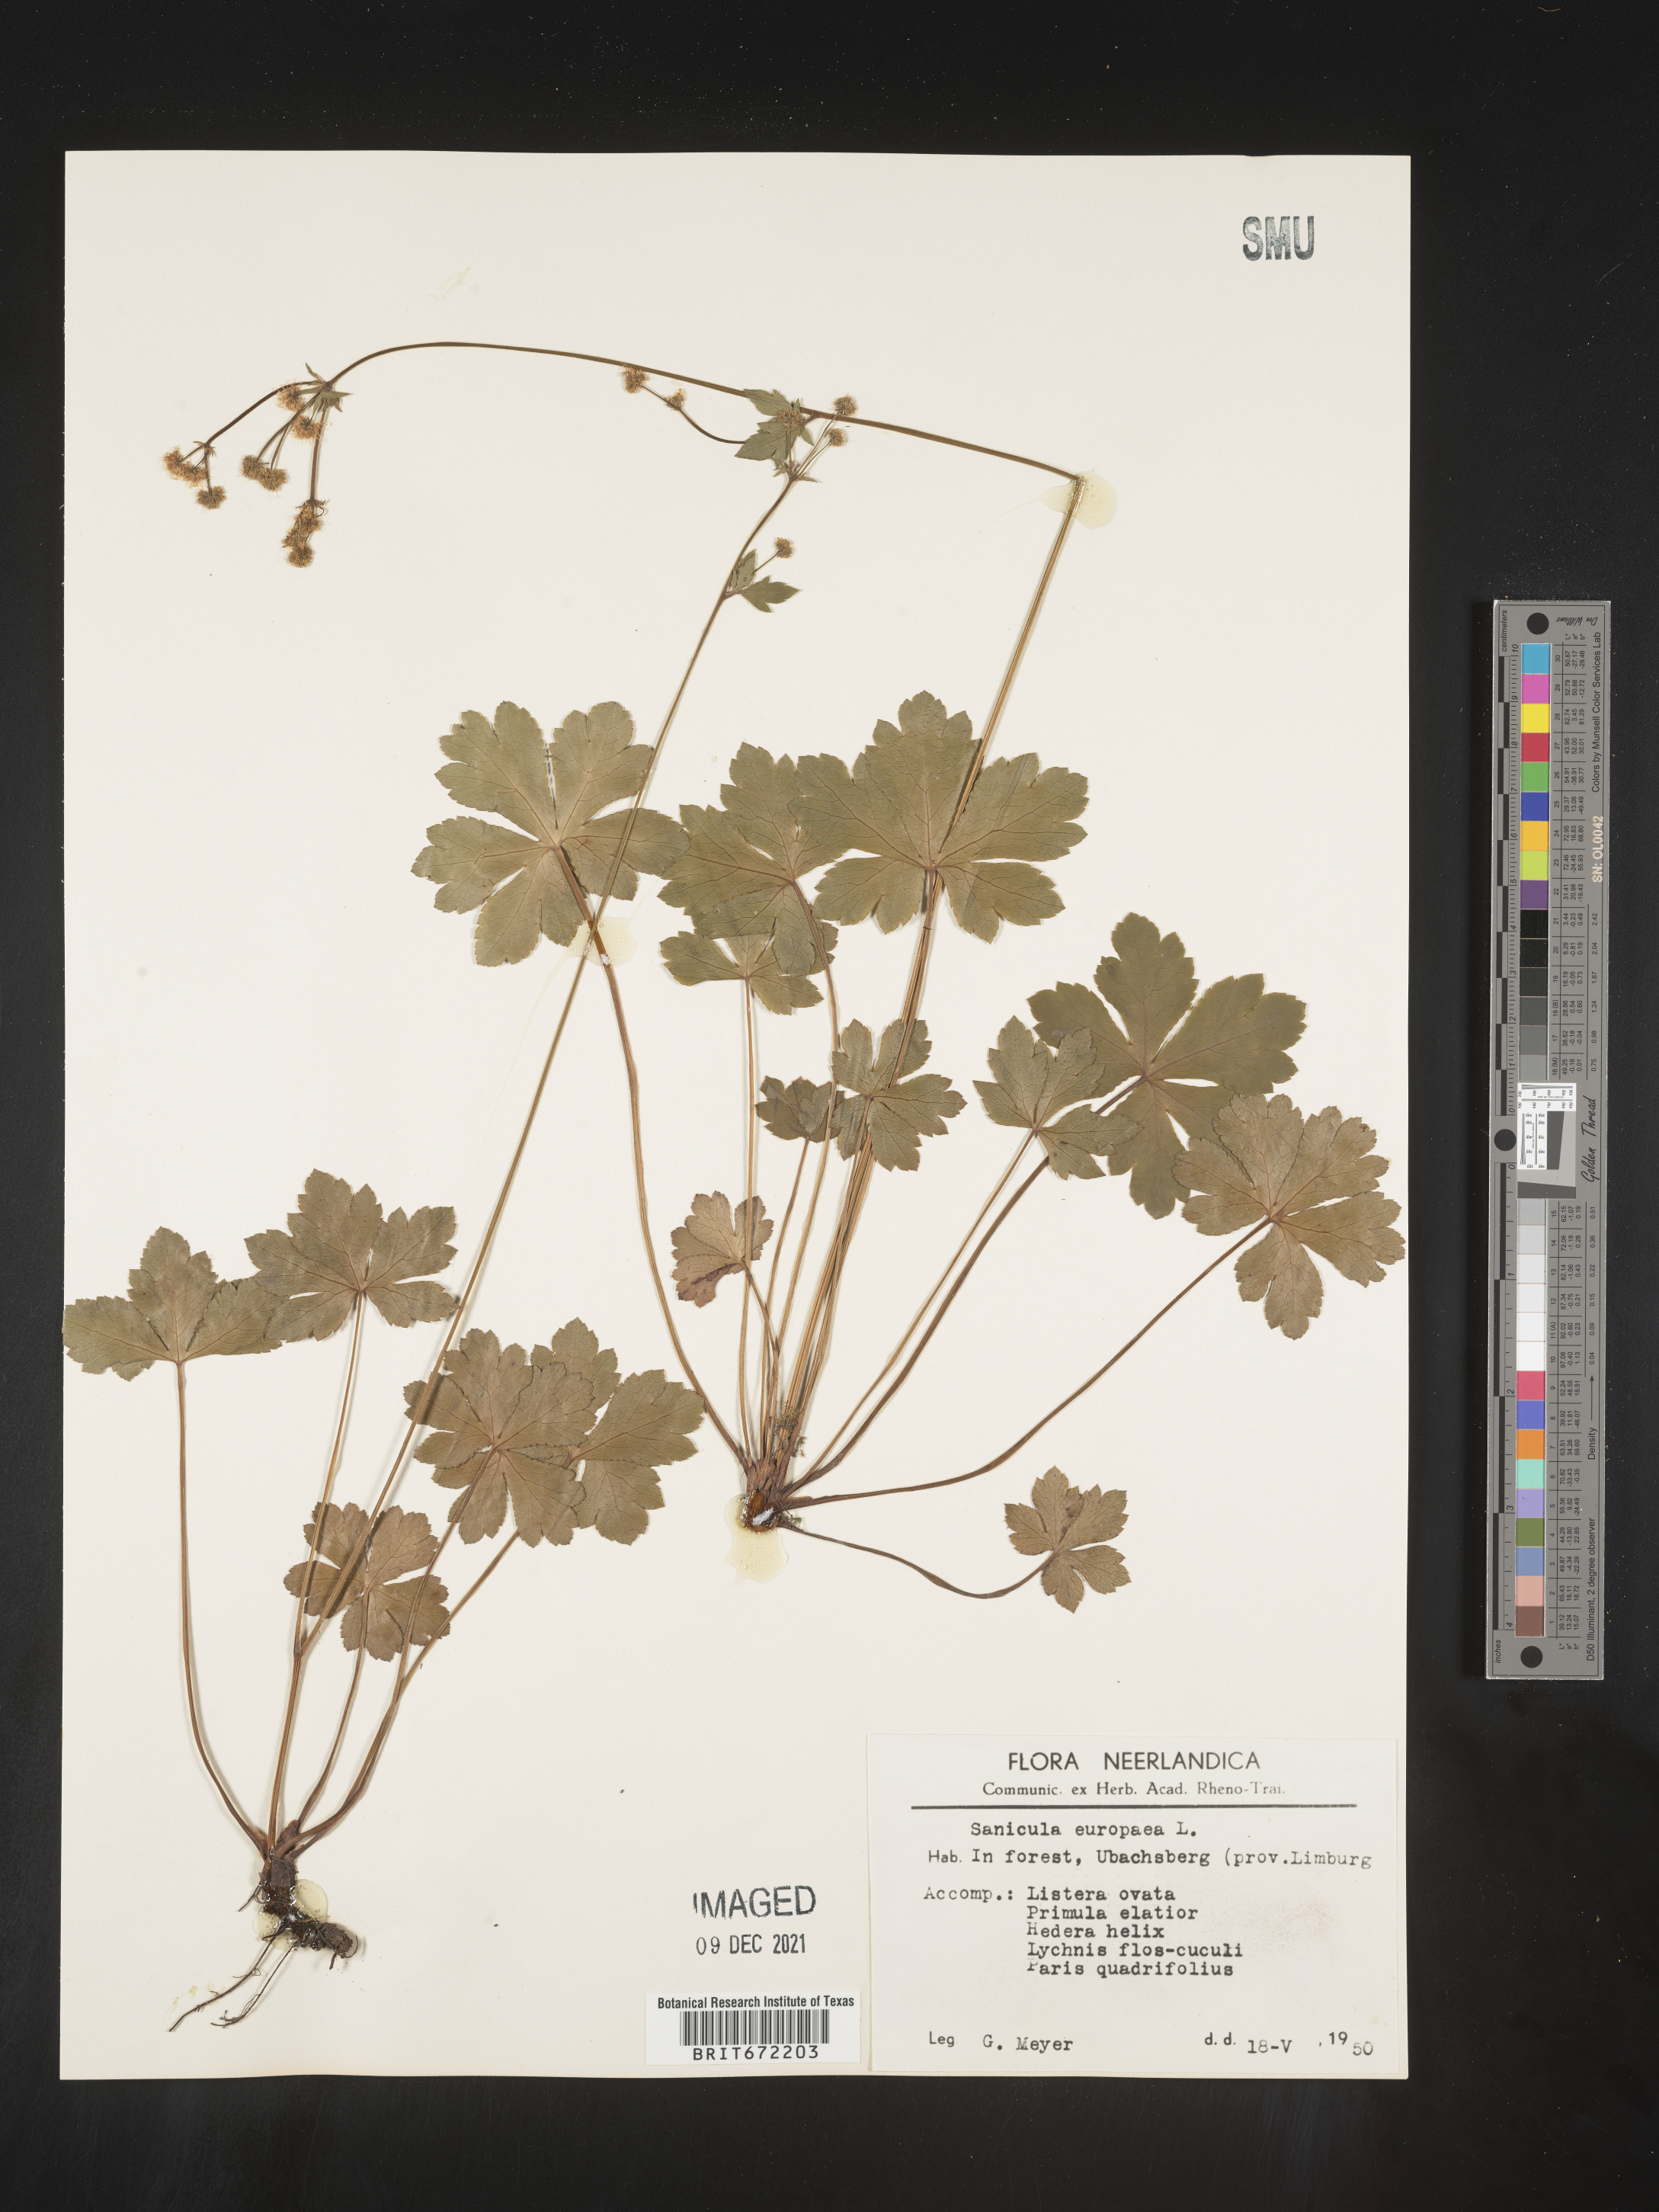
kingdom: Plantae
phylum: Tracheophyta
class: Magnoliopsida
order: Apiales
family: Apiaceae
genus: Sanicula
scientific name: Sanicula
